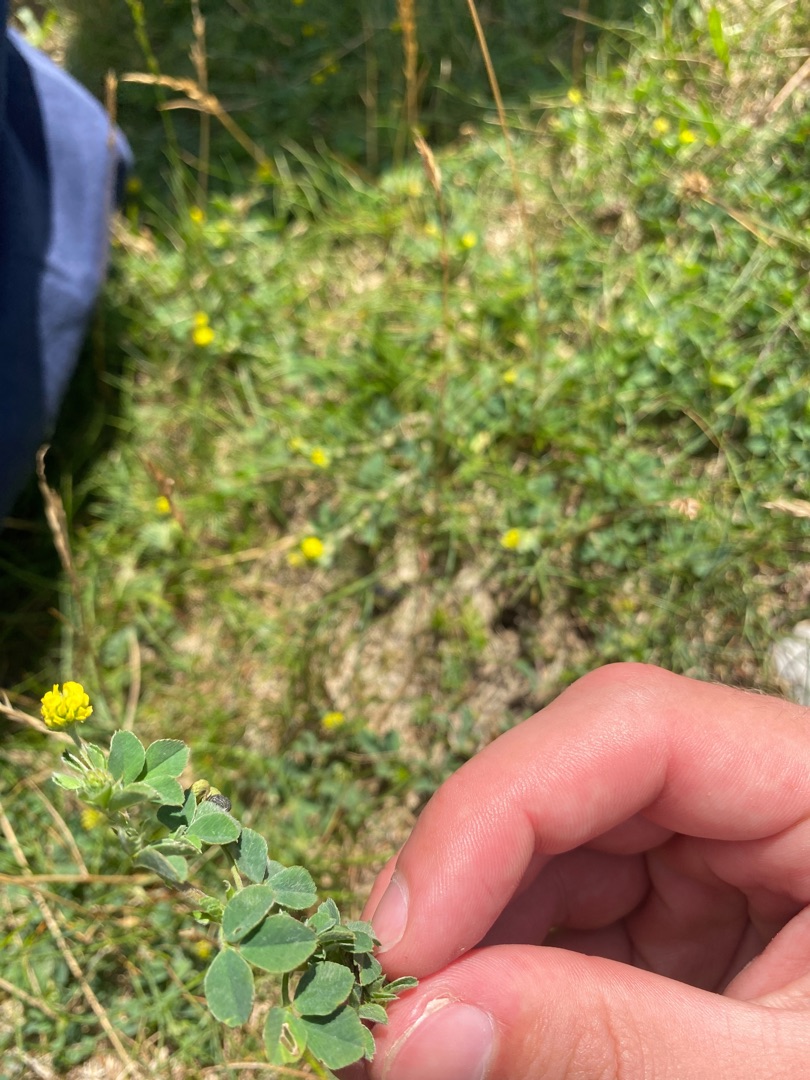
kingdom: Plantae
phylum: Tracheophyta
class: Magnoliopsida
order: Fabales
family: Fabaceae
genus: Medicago
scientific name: Medicago lupulina
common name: Humle-sneglebælg
